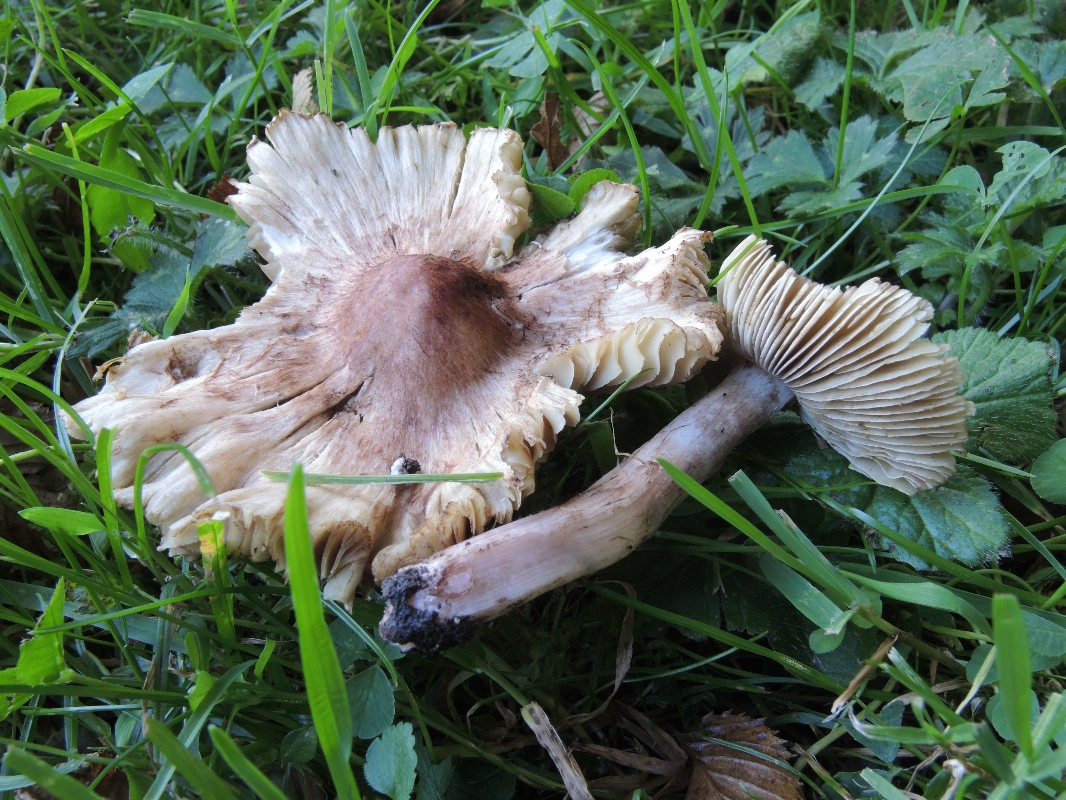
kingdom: Fungi
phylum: Basidiomycota
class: Agaricomycetes
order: Agaricales
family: Inocybaceae
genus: Inosperma
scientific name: Inosperma adaequatum
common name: vinrød trævlhat
